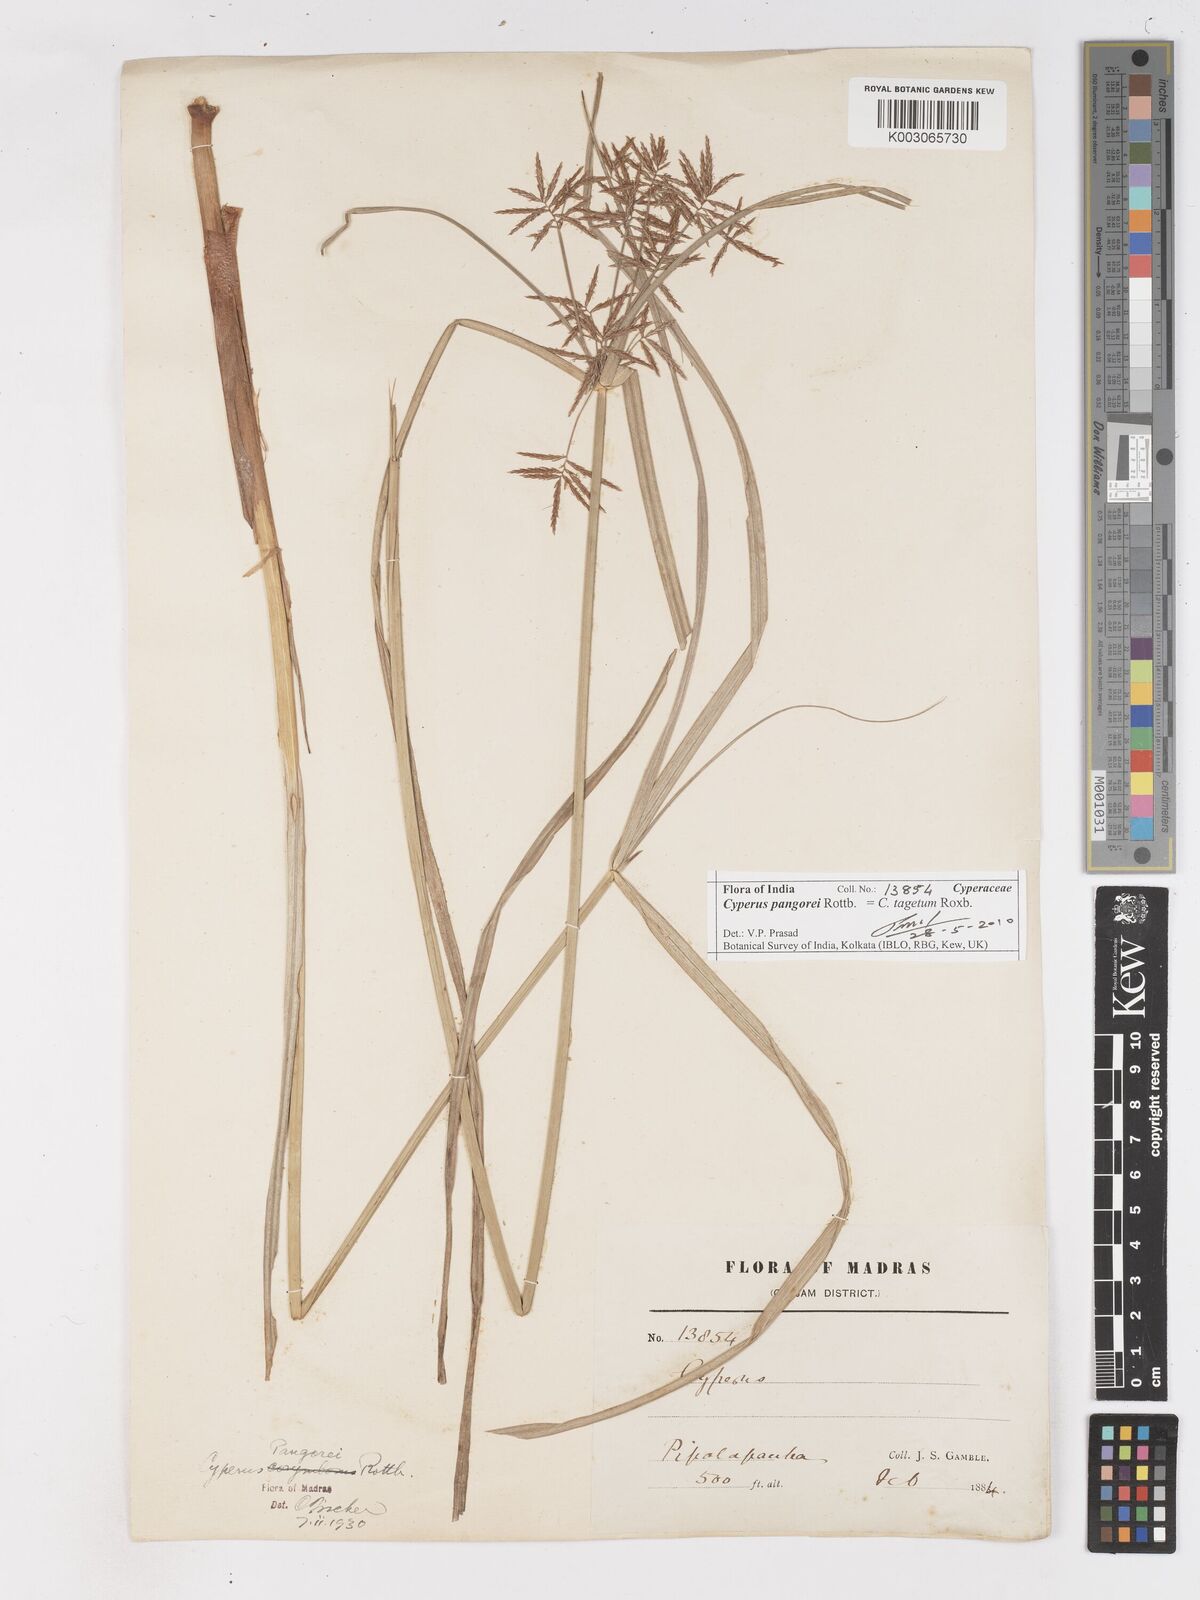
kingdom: Plantae
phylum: Tracheophyta
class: Liliopsida
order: Poales
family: Cyperaceae
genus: Cyperus
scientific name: Cyperus pangorei
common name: Mat sedge
